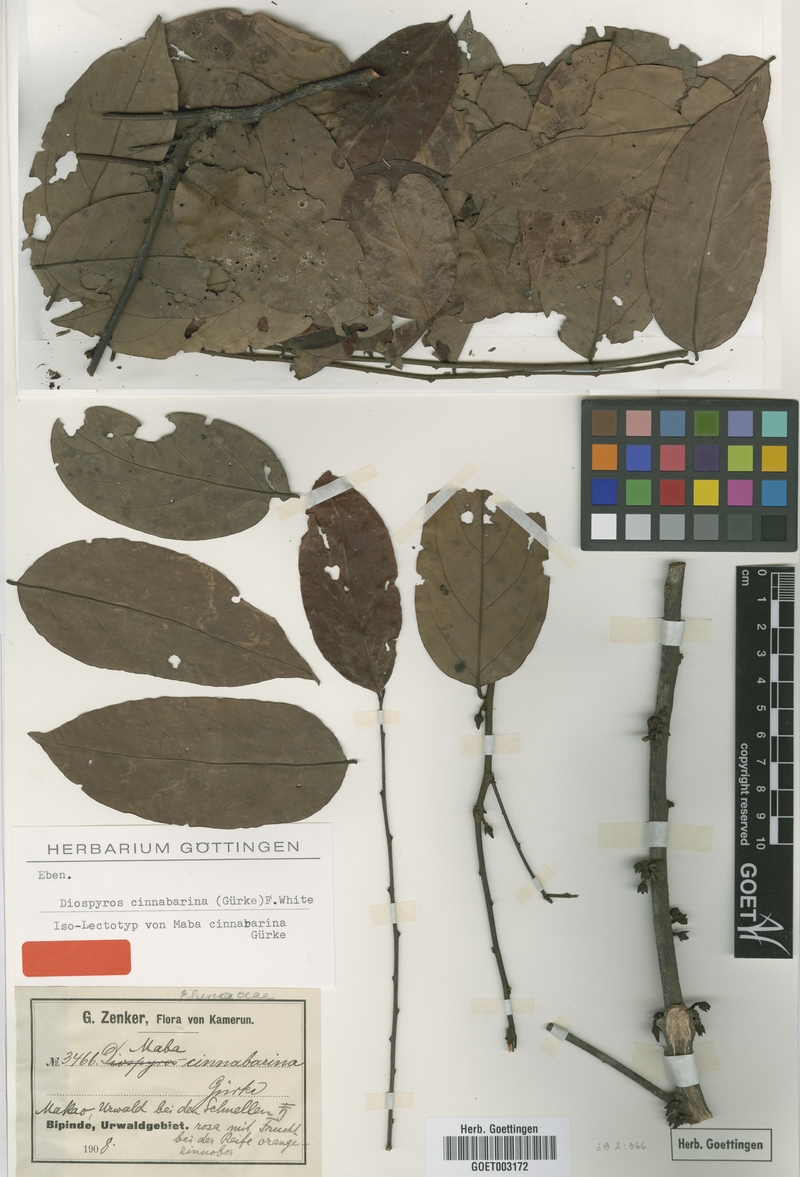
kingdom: Plantae
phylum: Tracheophyta
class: Magnoliopsida
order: Ericales
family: Ebenaceae
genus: Diospyros
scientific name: Diospyros cinnabarina
